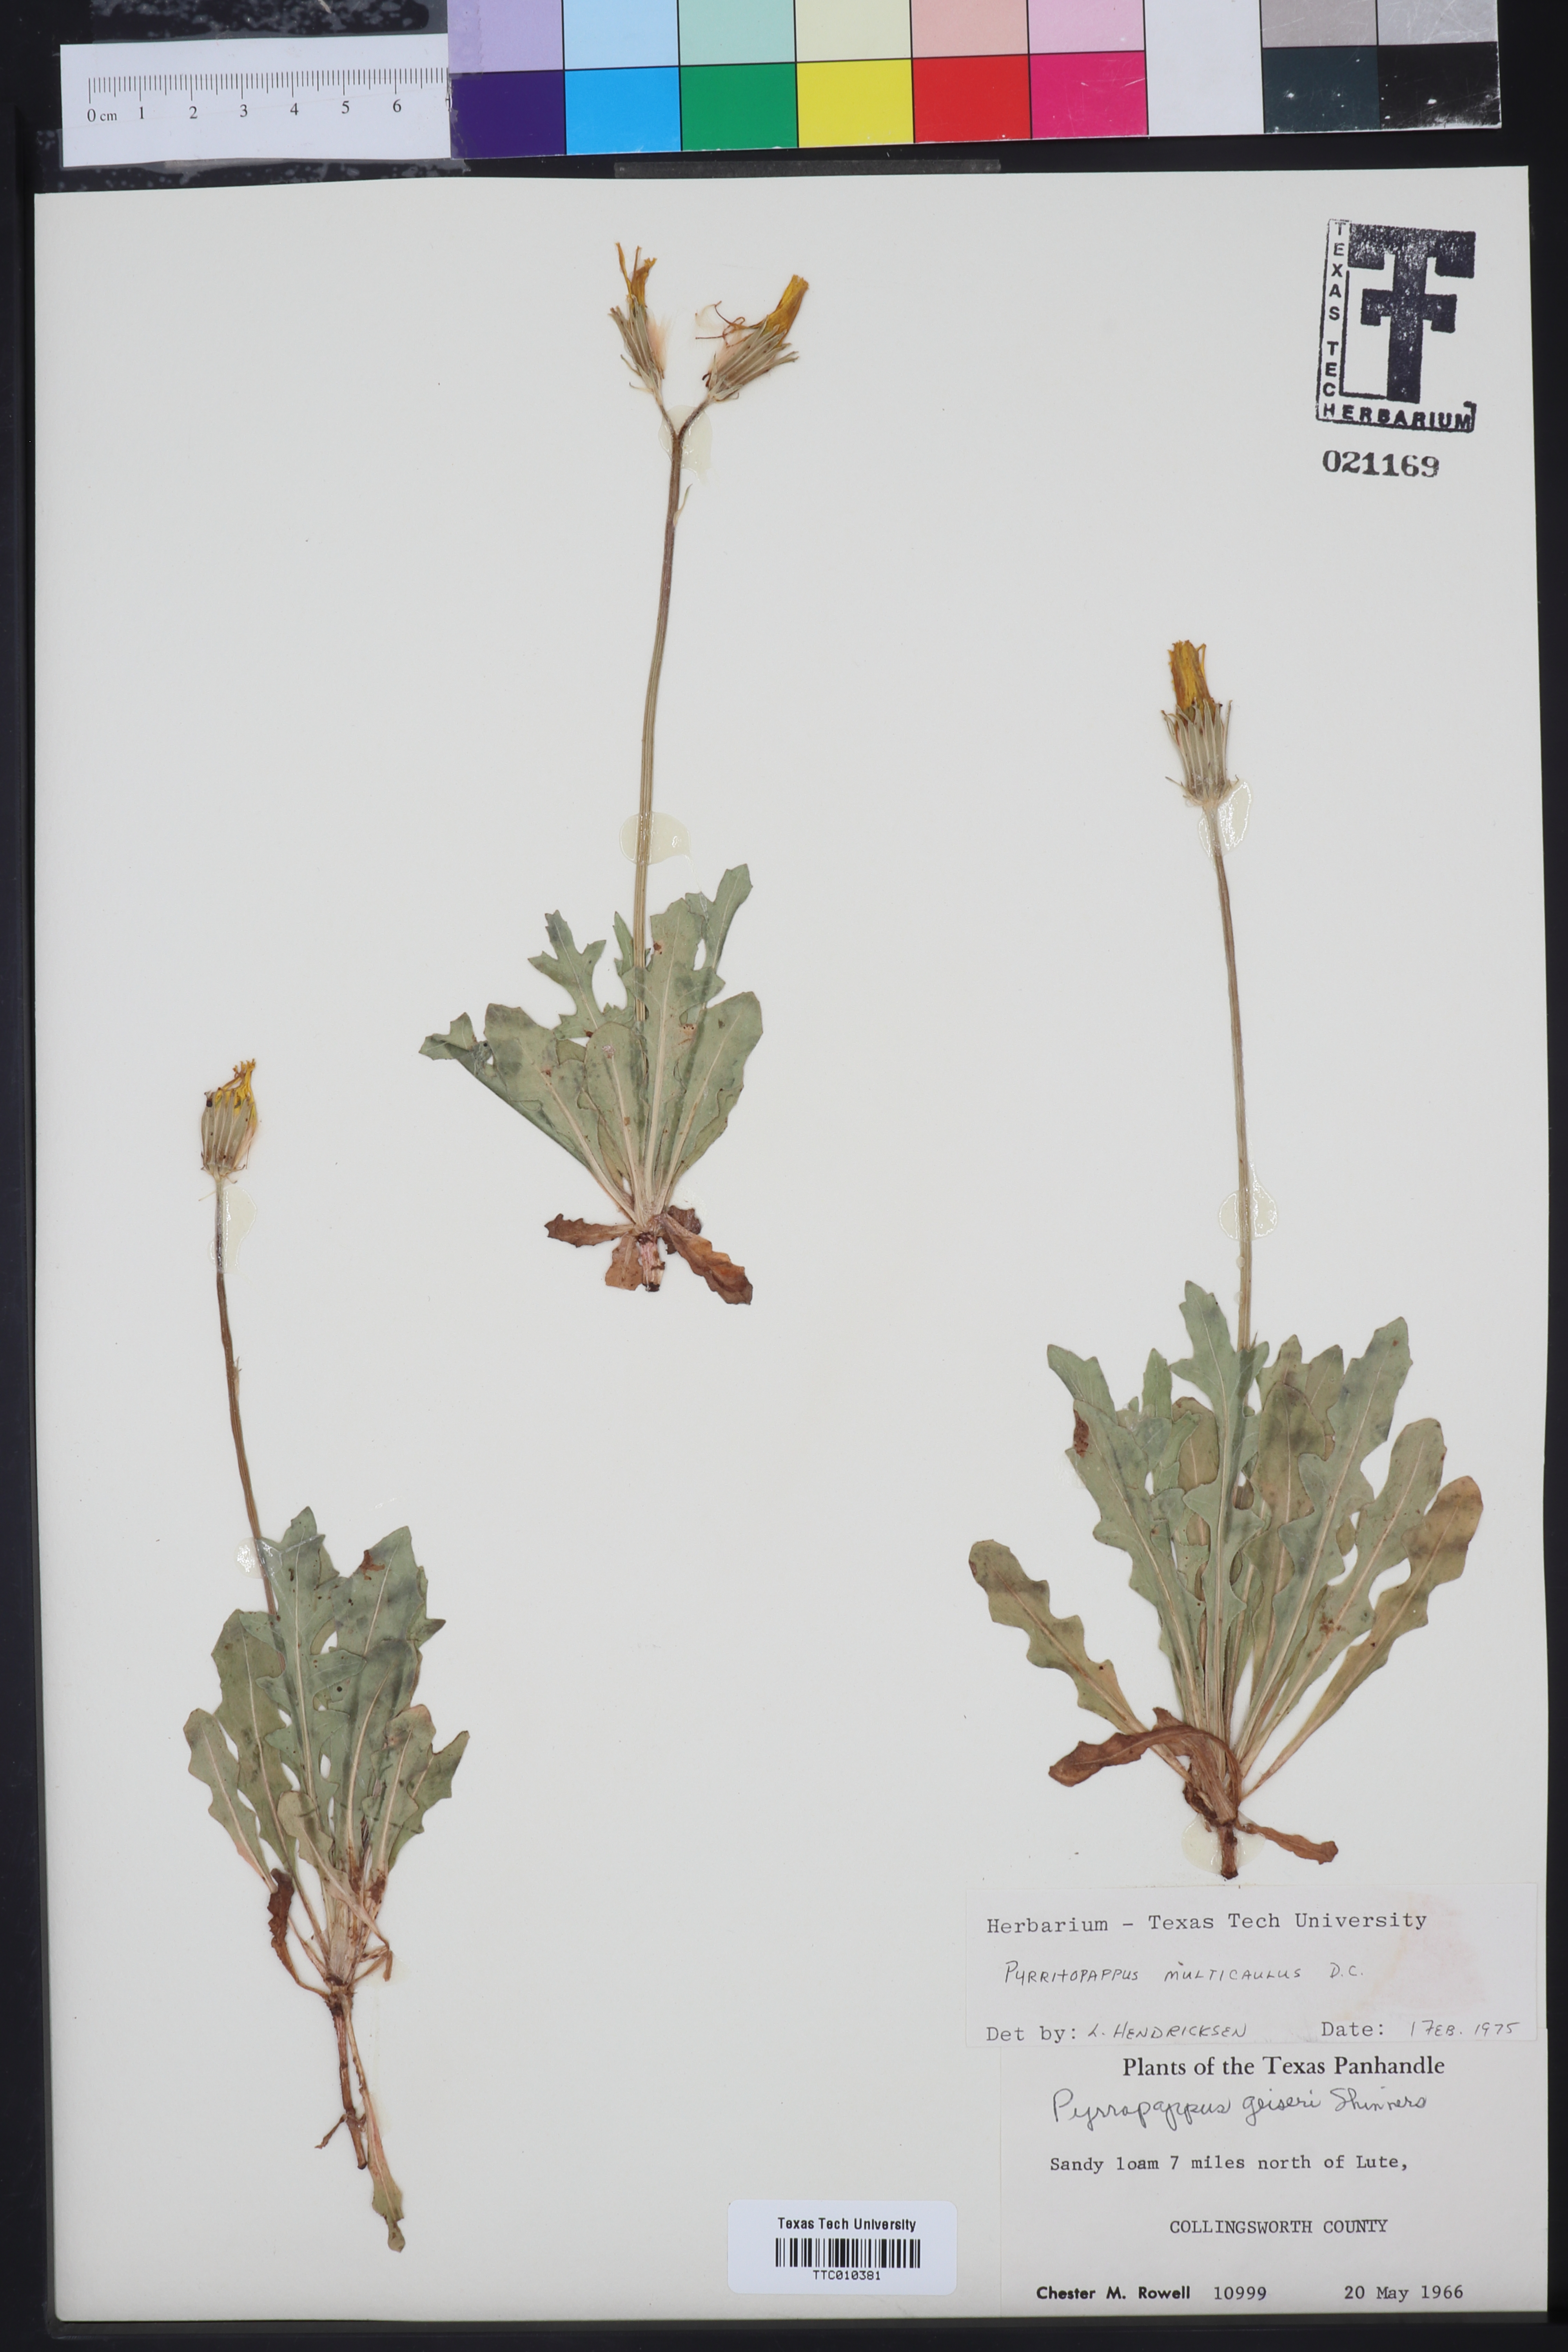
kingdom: Plantae
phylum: Tracheophyta
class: Magnoliopsida
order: Asterales
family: Asteraceae
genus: Pyrrhopappus
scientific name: Pyrrhopappus pauciflorus
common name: Texas false dandelion
